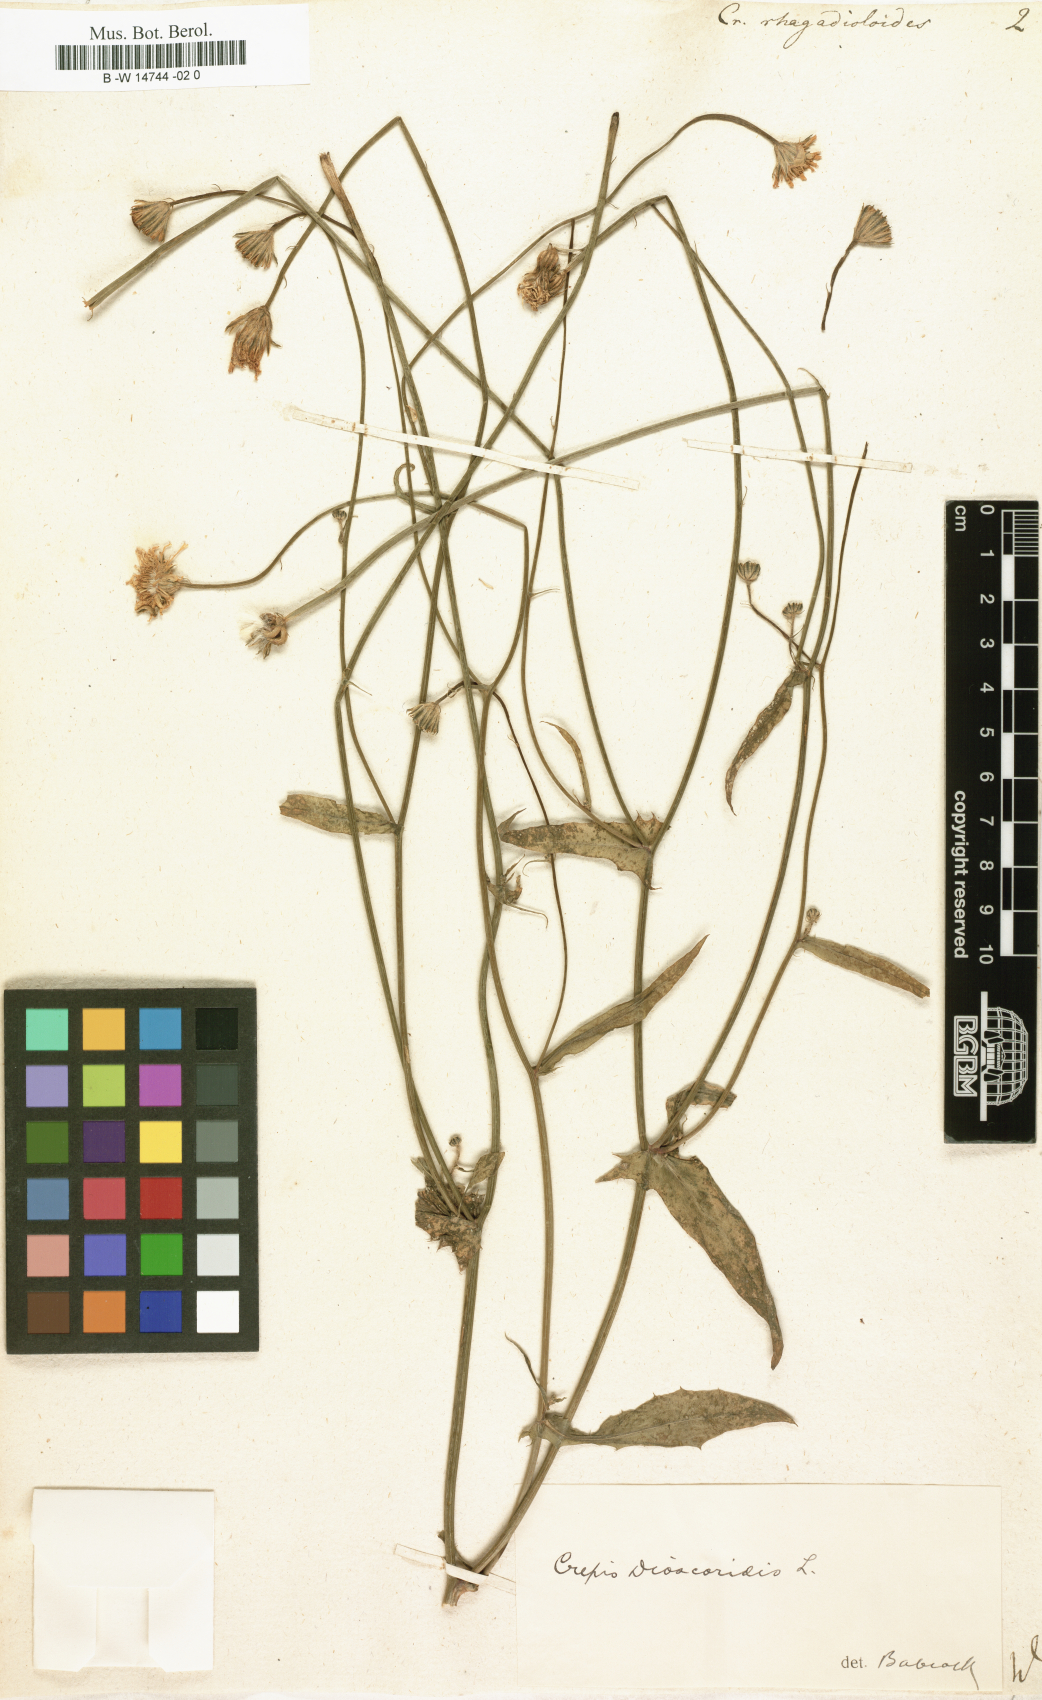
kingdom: Plantae
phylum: Tracheophyta
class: Magnoliopsida
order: Asterales
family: Asteraceae
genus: Picris
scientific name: Picris rhagadioloides
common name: Oxtongue
